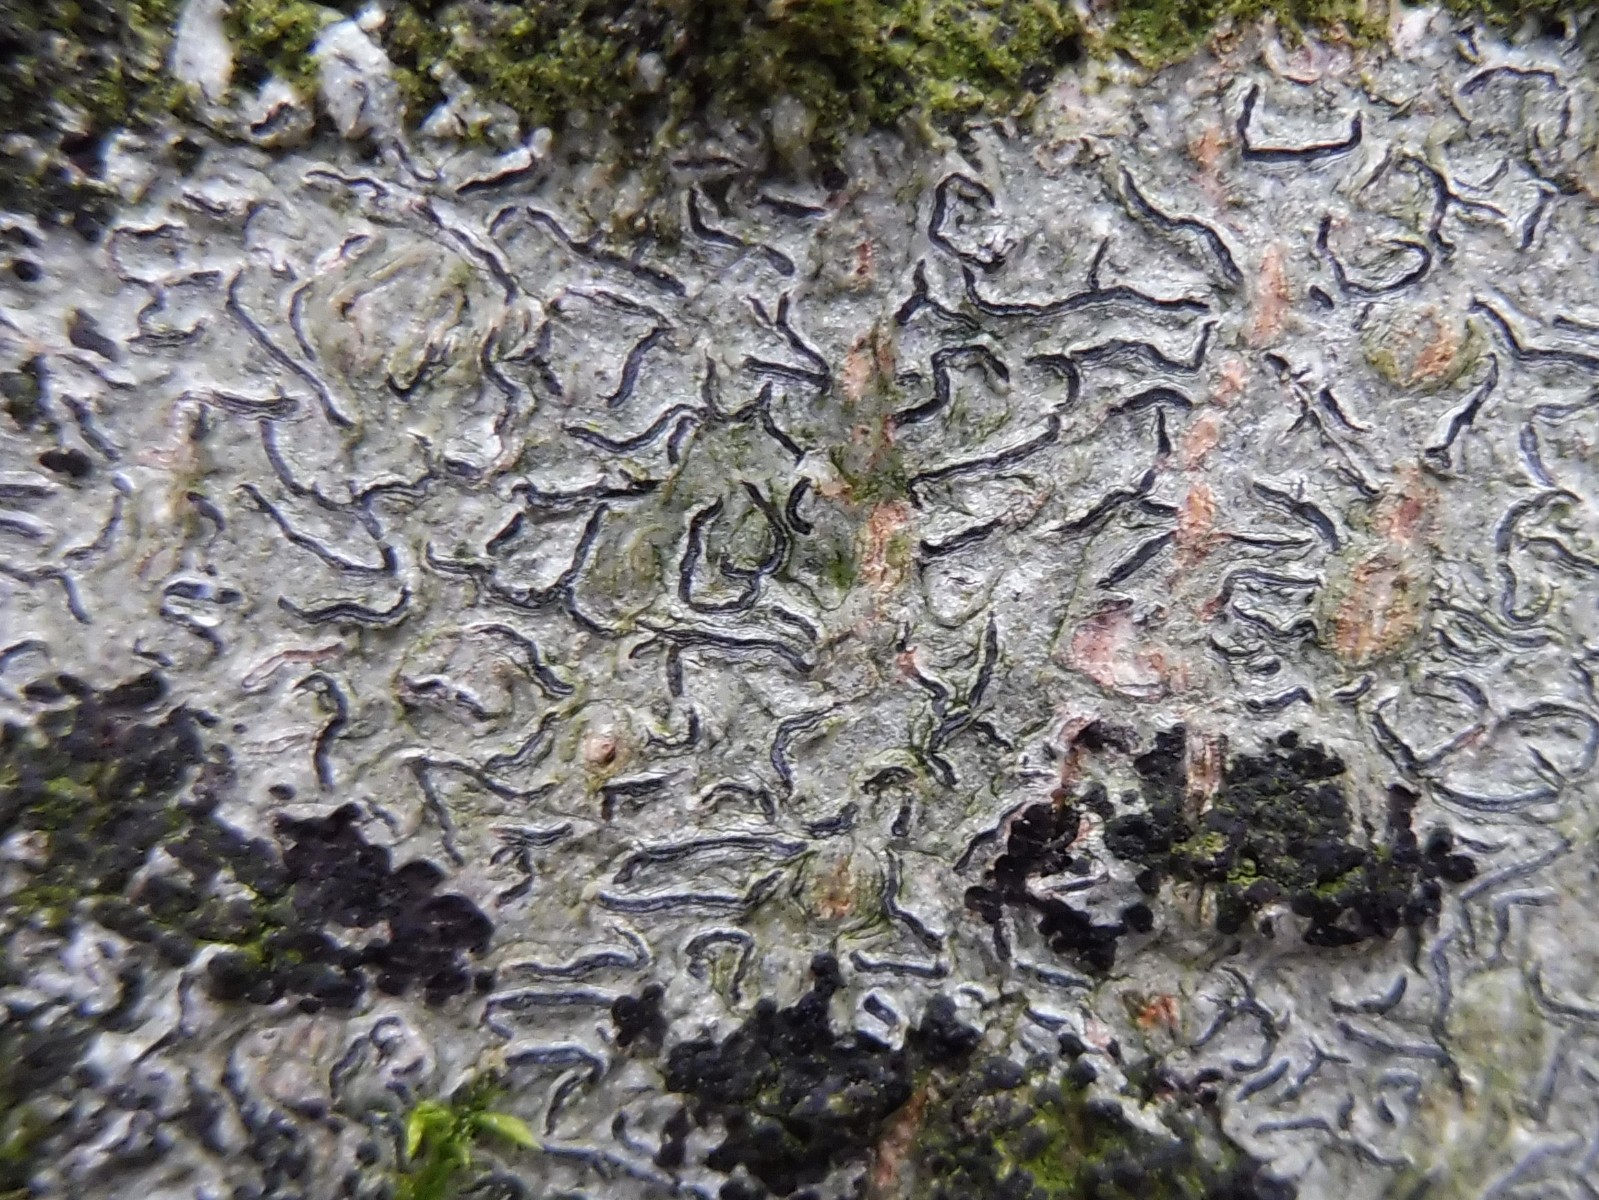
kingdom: Fungi
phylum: Ascomycota
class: Lecanoromycetes
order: Ostropales
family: Graphidaceae
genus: Graphis
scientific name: Graphis scripta
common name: almindelig skriftlav
